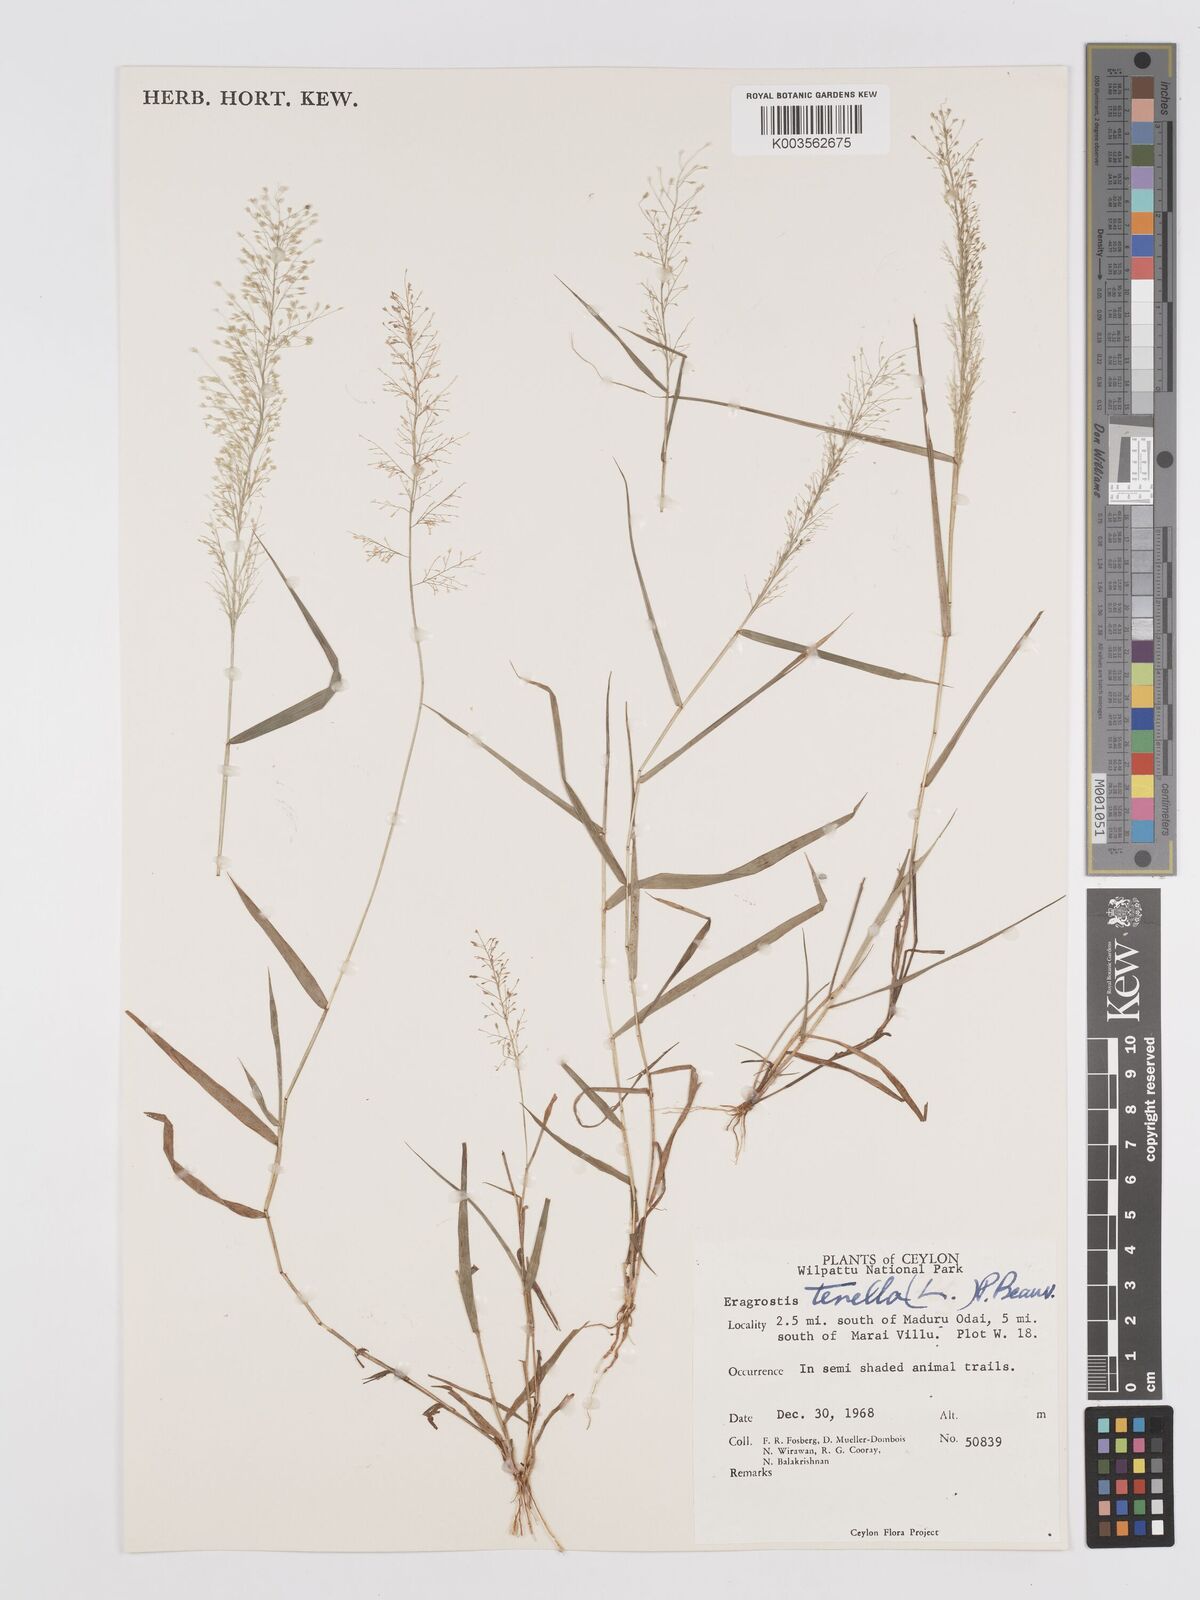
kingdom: Plantae
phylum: Tracheophyta
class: Liliopsida
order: Poales
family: Poaceae
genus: Eragrostis
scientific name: Eragrostis tenella
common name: Japanese lovegrass
